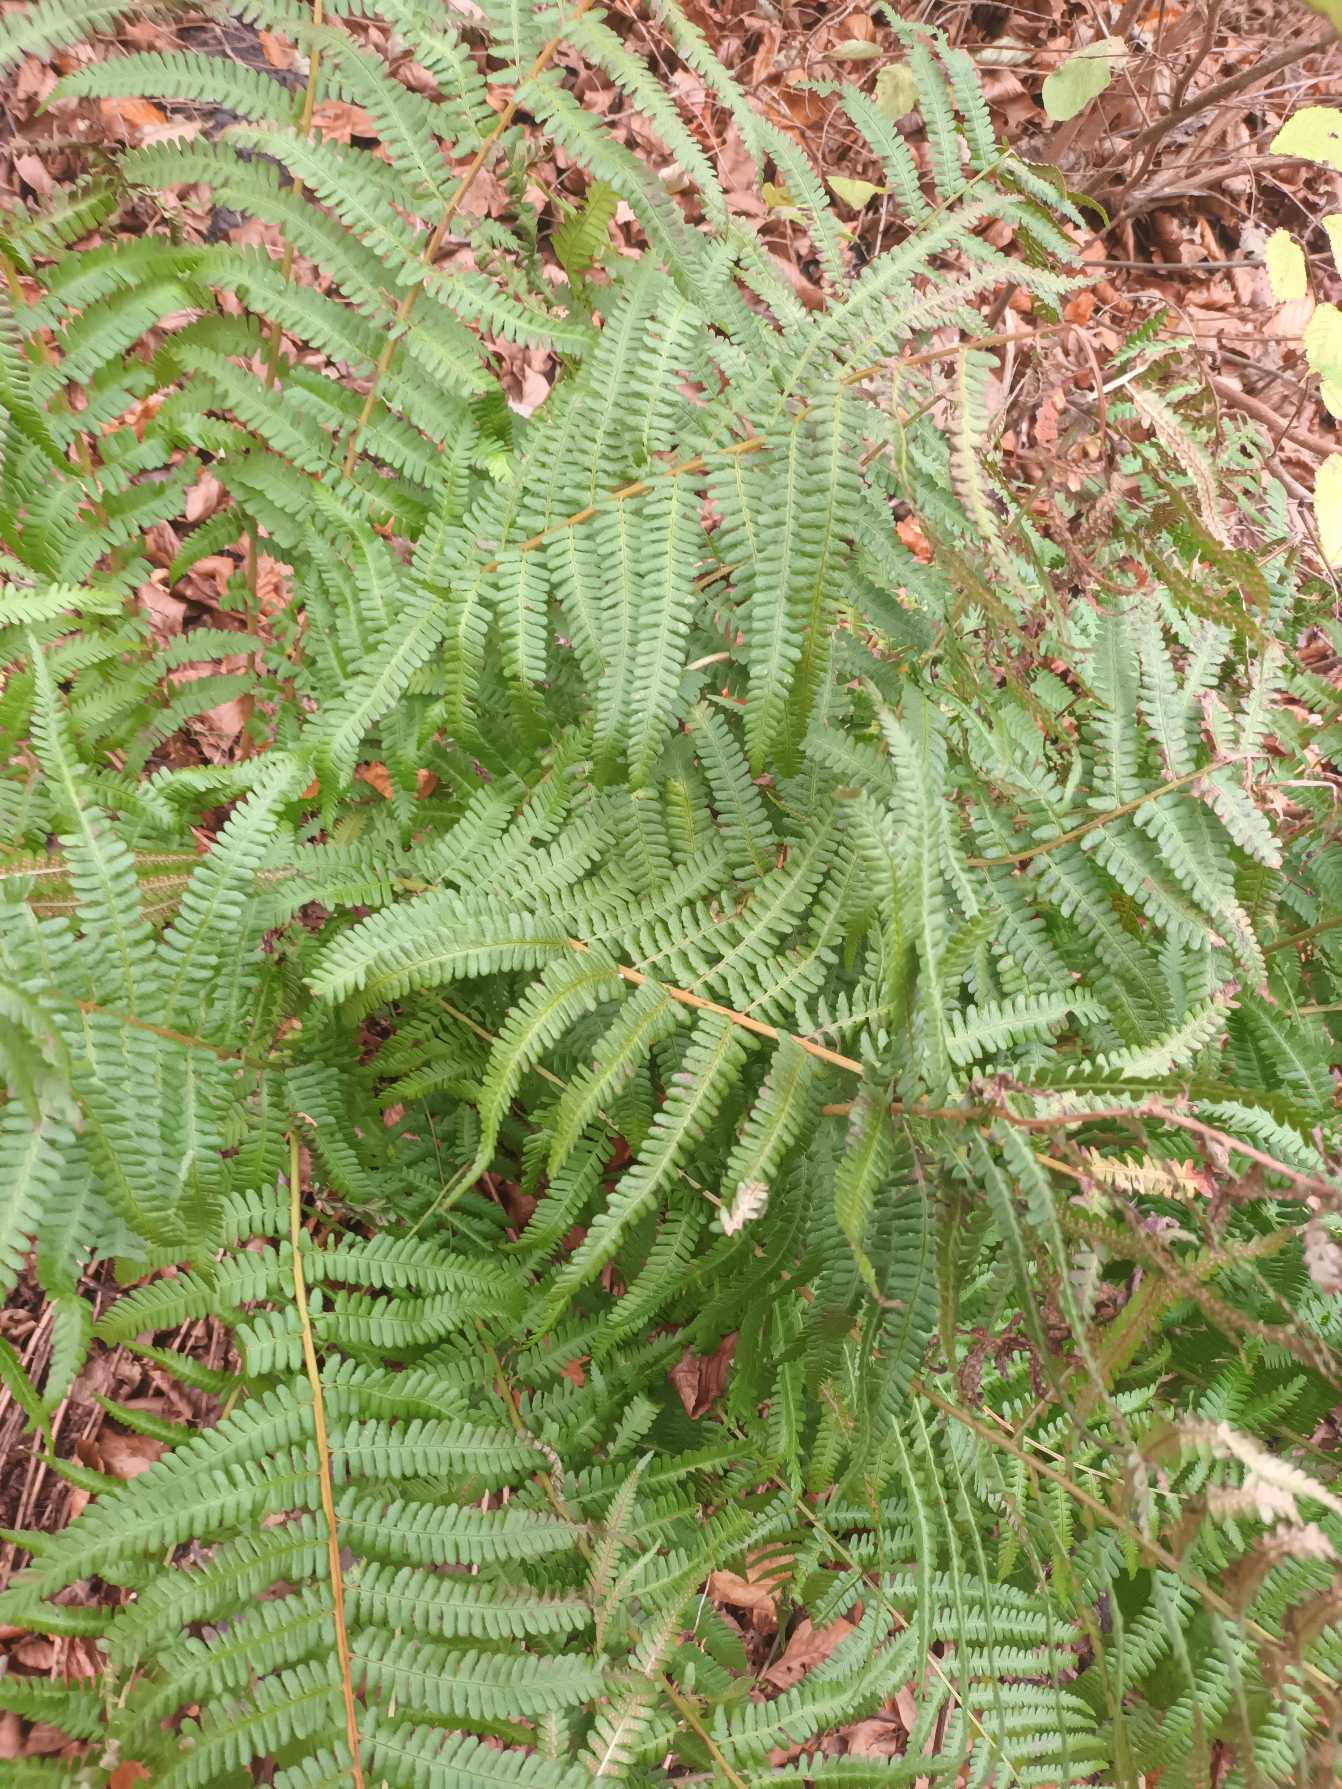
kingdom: Plantae
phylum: Tracheophyta
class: Polypodiopsida
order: Polypodiales
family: Dryopteridaceae
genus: Dryopteris
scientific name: Dryopteris filix-mas
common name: Almindelig mangeløv
